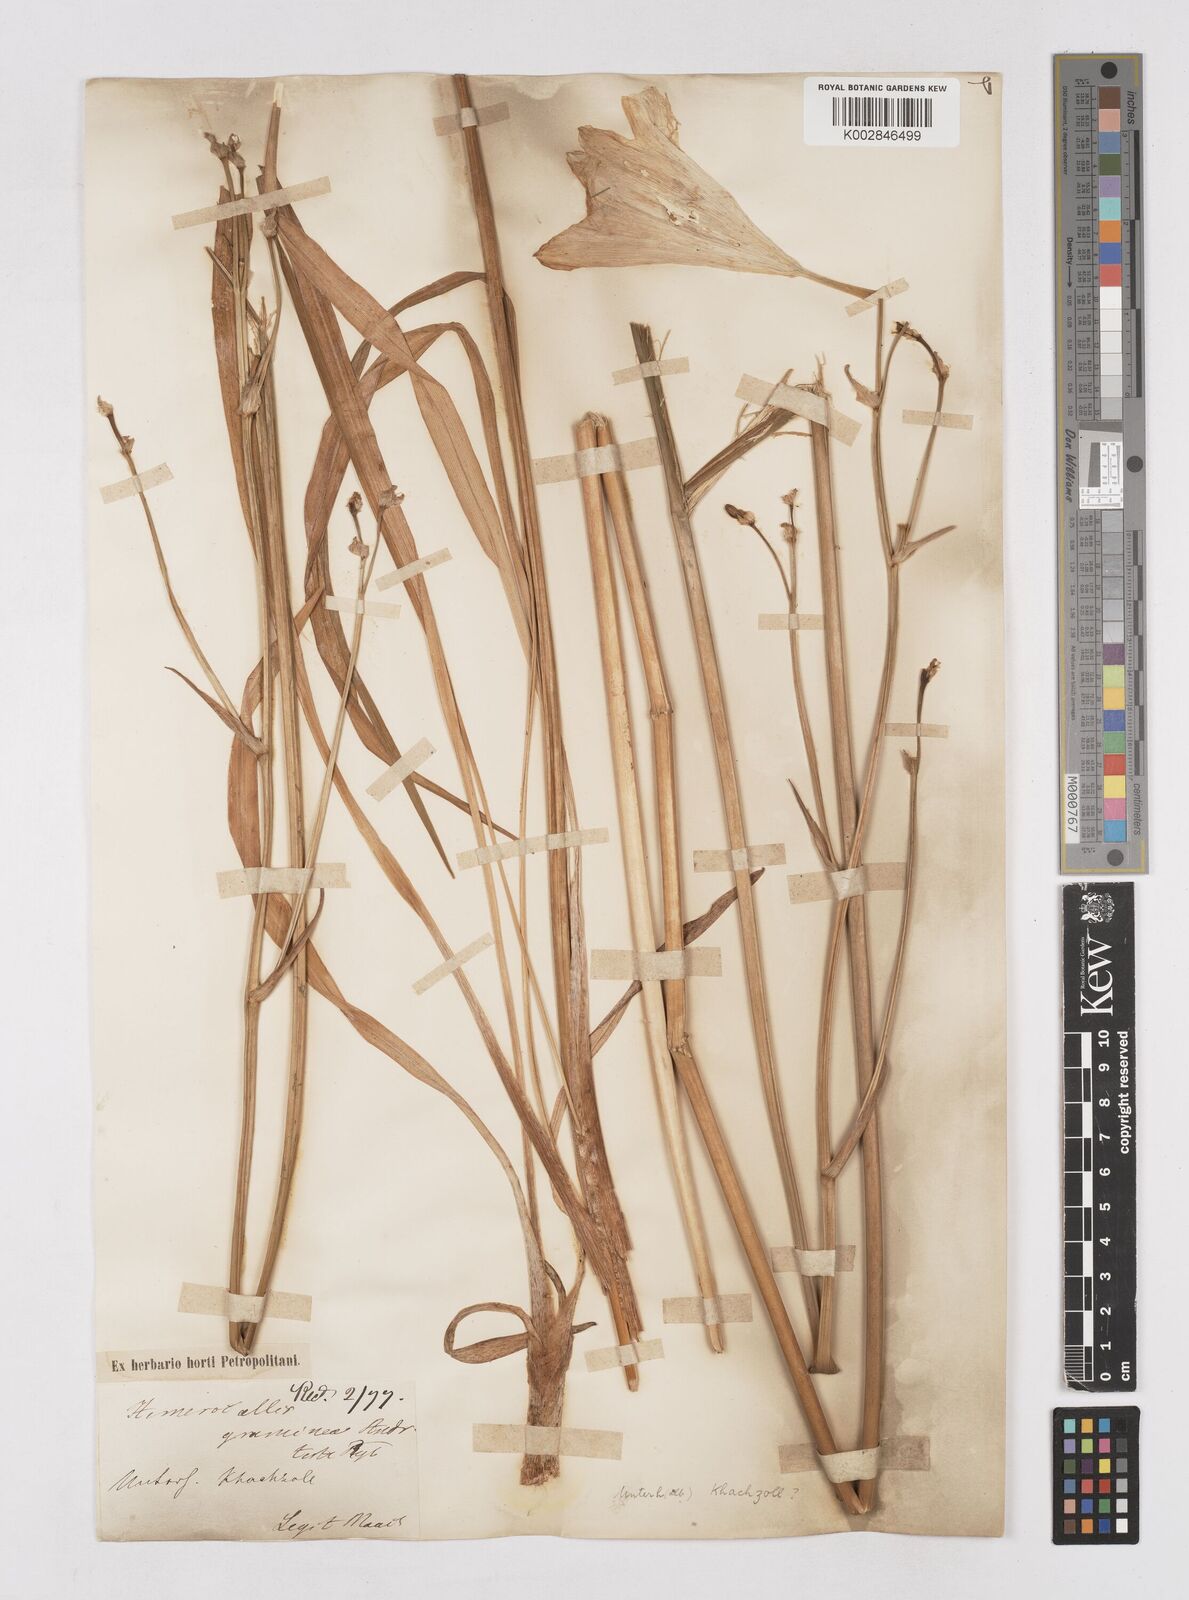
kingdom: Plantae
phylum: Tracheophyta
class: Liliopsida
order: Asparagales
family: Asphodelaceae
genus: Hemerocallis
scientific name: Hemerocallis lilioasphodelus
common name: Yellow day-lily
